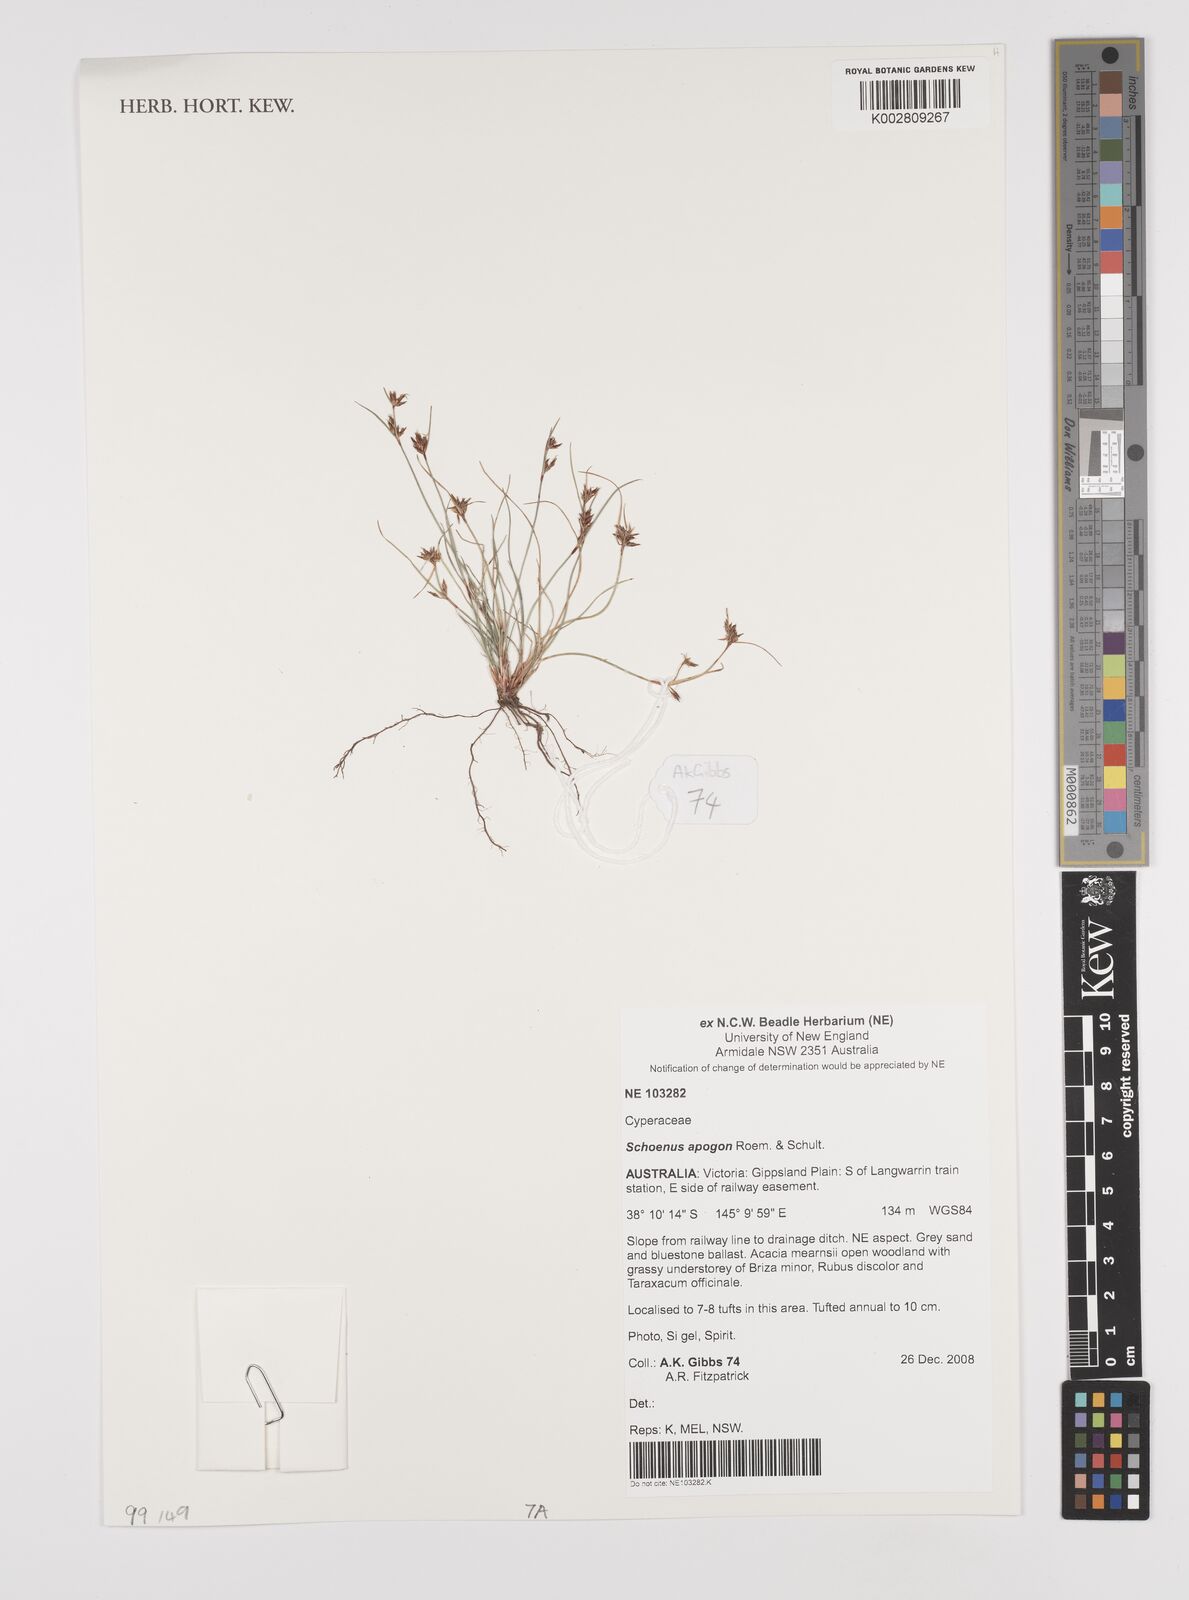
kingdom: Plantae
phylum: Tracheophyta
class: Liliopsida
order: Poales
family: Cyperaceae
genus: Schoenus
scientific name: Schoenus apogon
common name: Smooth bogrush
